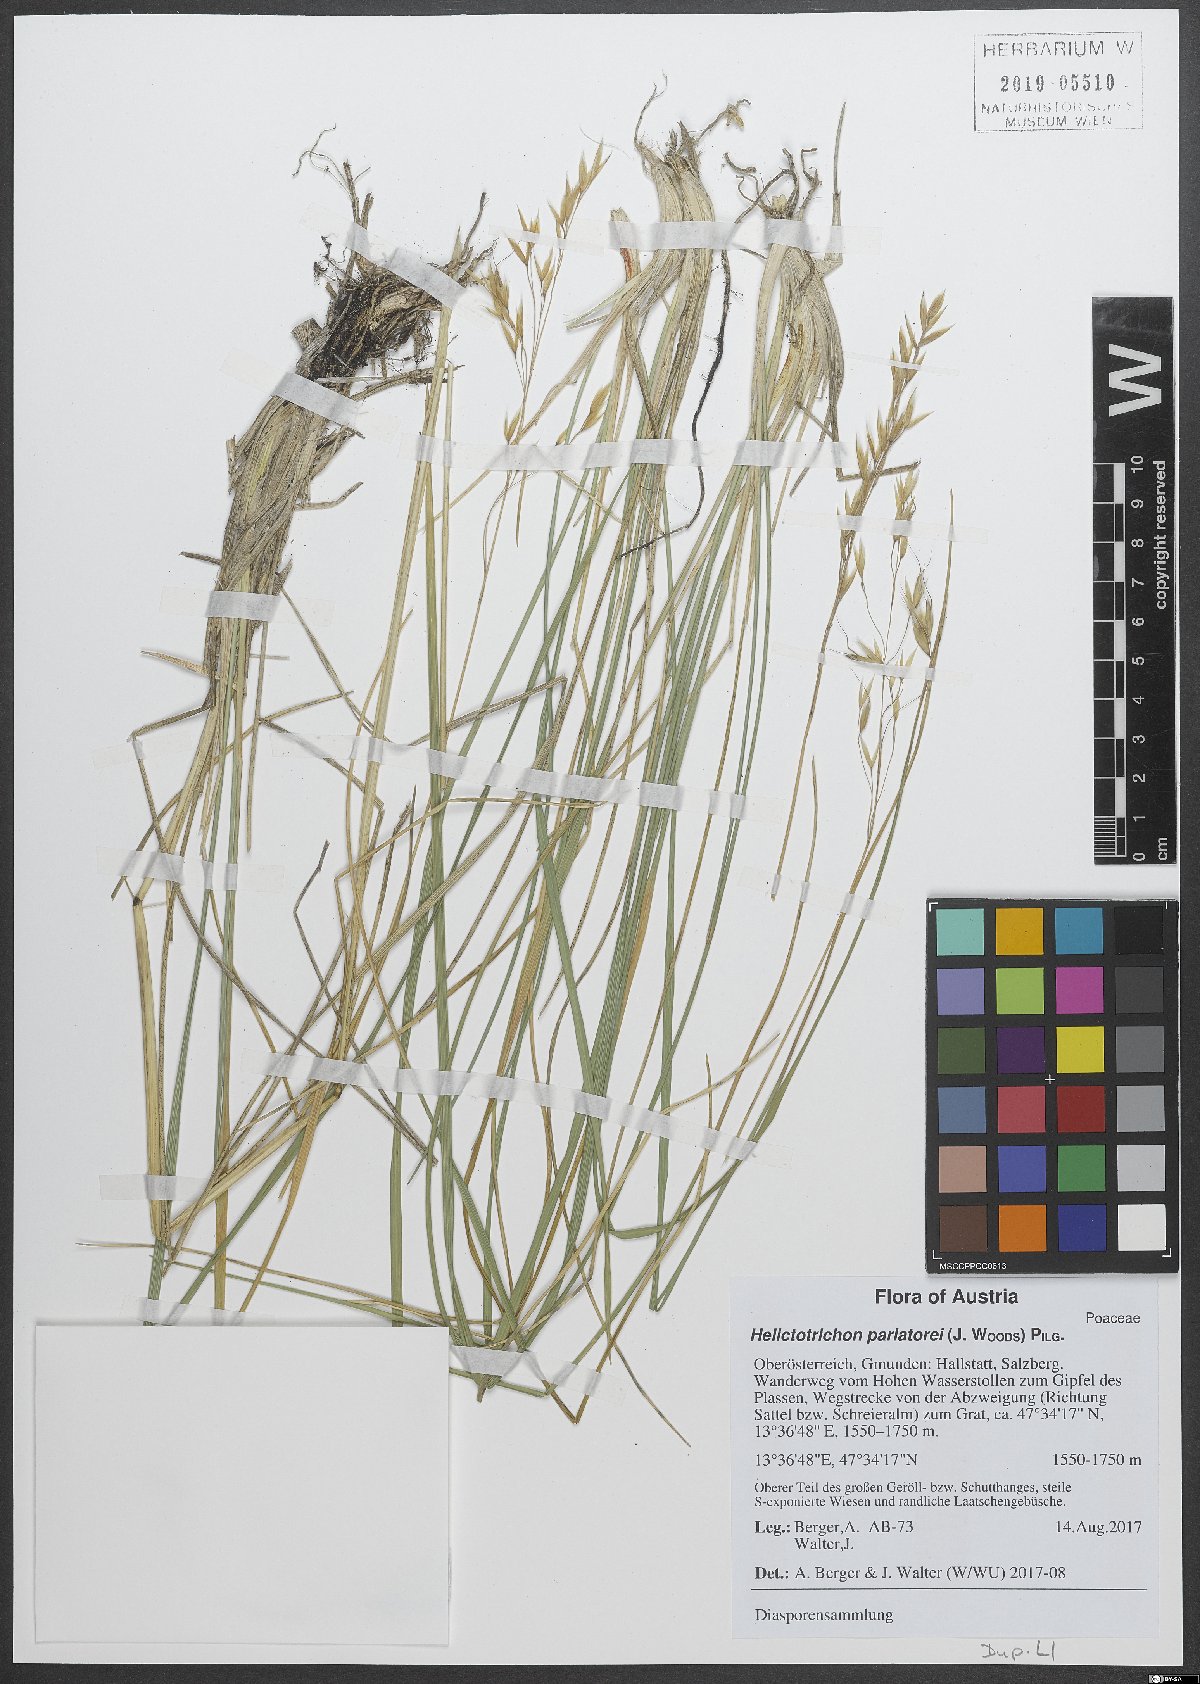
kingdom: Plantae
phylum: Tracheophyta
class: Liliopsida
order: Poales
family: Poaceae
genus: Helictotrichon
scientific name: Helictotrichon parlatorei
